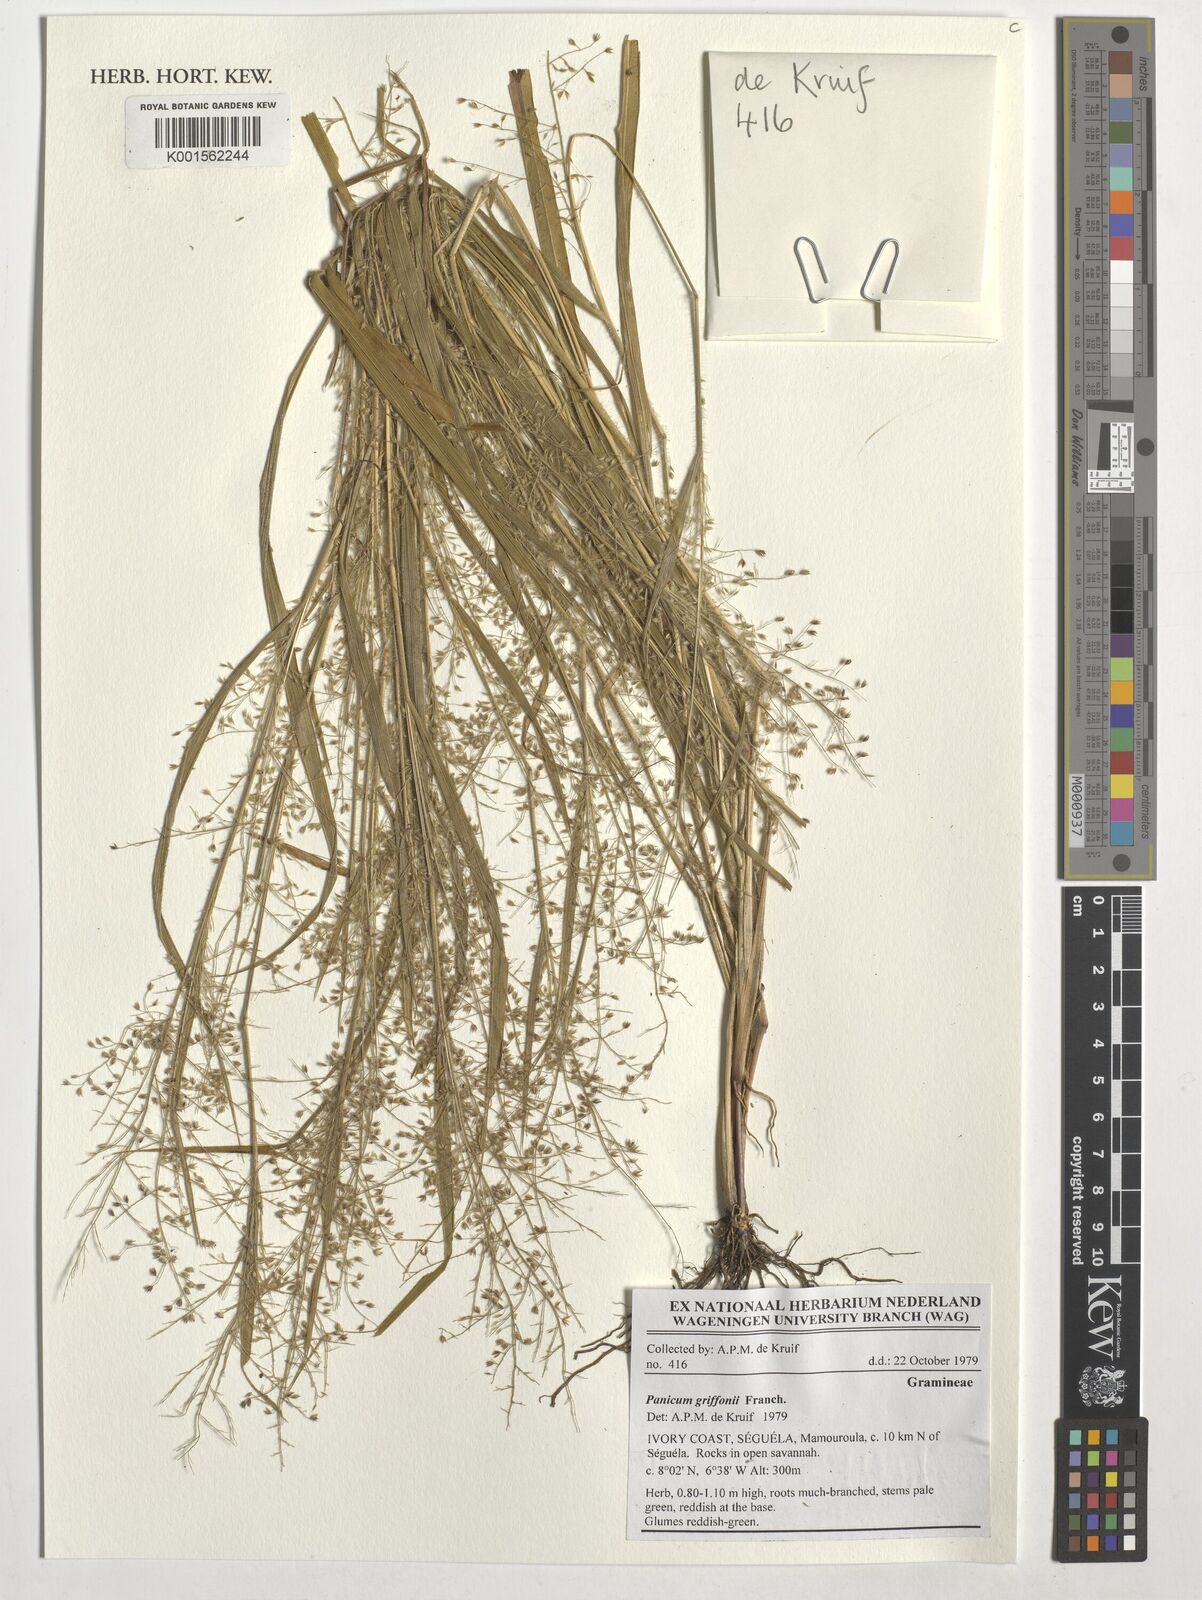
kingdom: Plantae
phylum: Tracheophyta
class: Liliopsida
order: Poales
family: Poaceae
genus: Panicum
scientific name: Panicum griffonii
